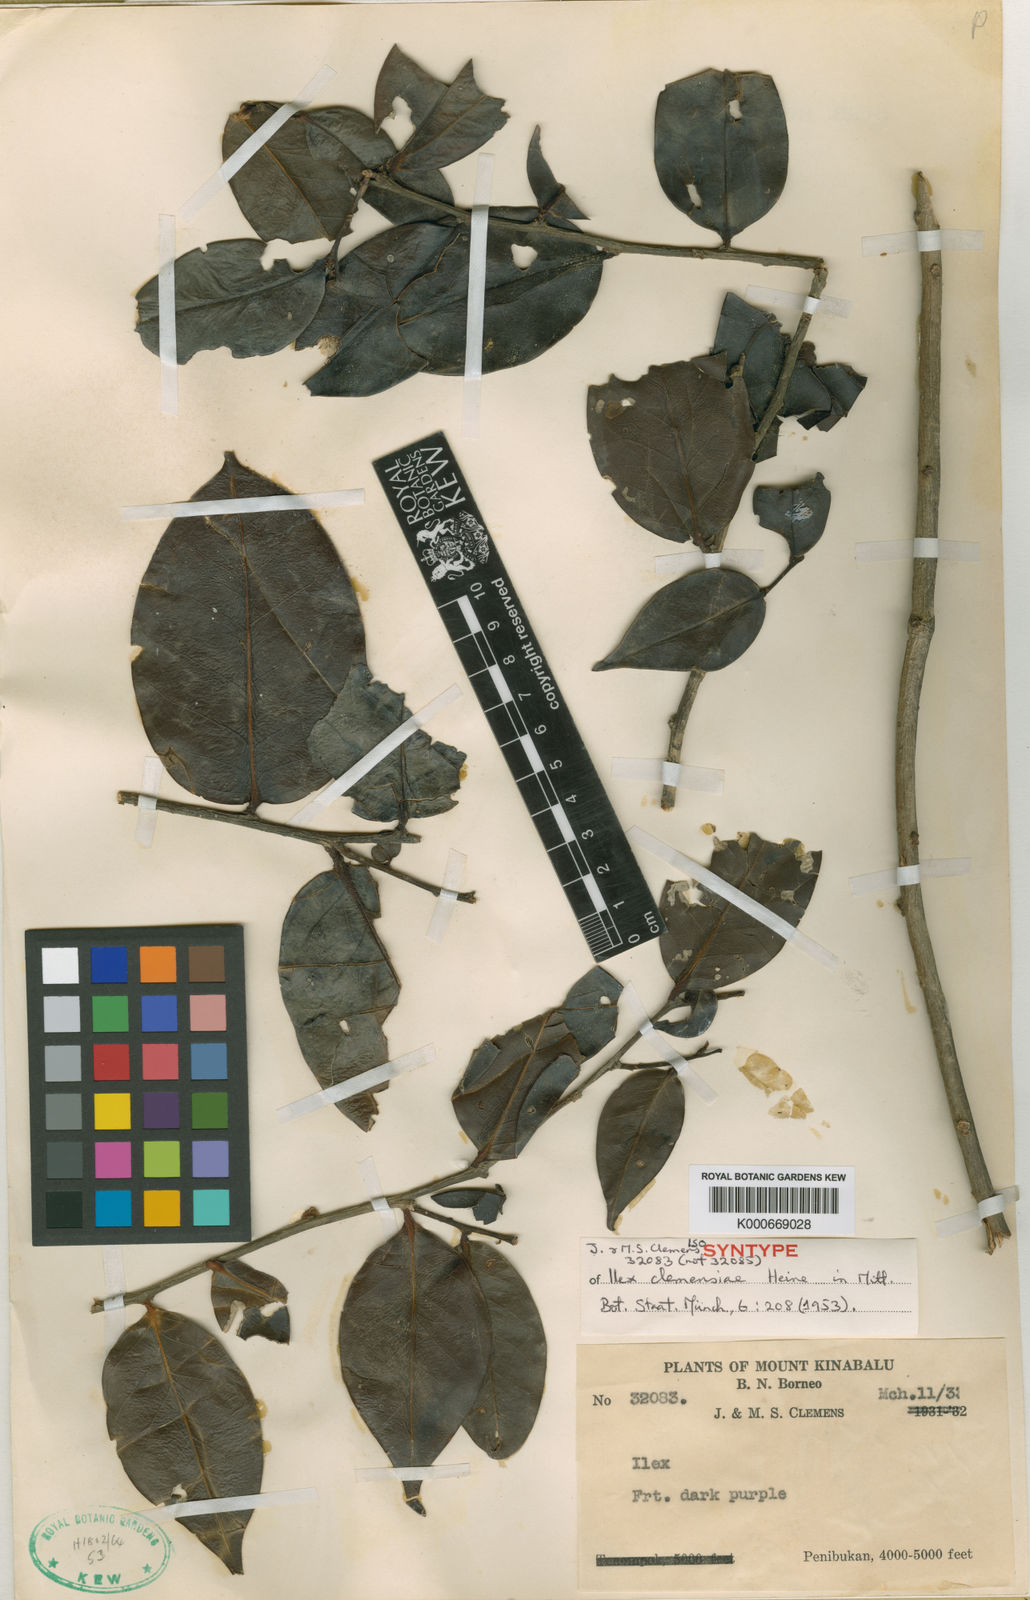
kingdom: Plantae
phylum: Tracheophyta
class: Magnoliopsida
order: Aquifoliales
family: Aquifoliaceae
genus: Ilex
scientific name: Ilex clemensiae
